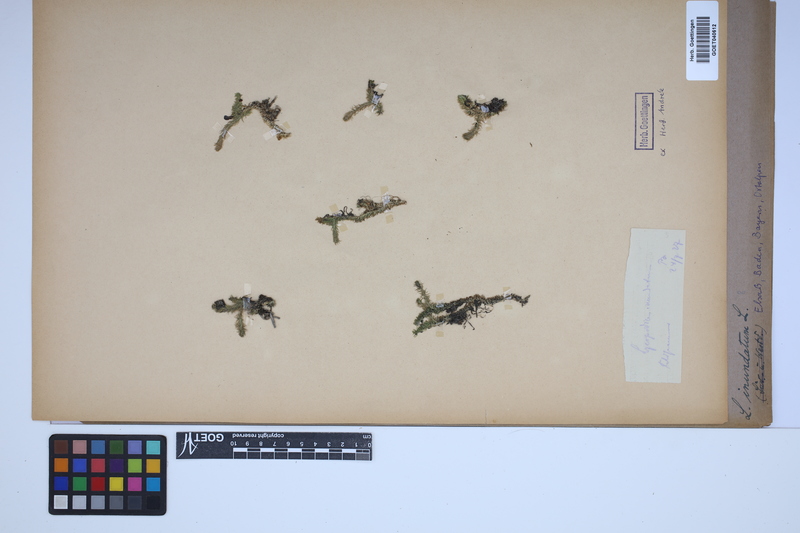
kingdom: Plantae
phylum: Tracheophyta
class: Lycopodiopsida
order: Lycopodiales
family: Lycopodiaceae
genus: Lycopodiella
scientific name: Lycopodiella inundata
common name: Marsh clubmoss
